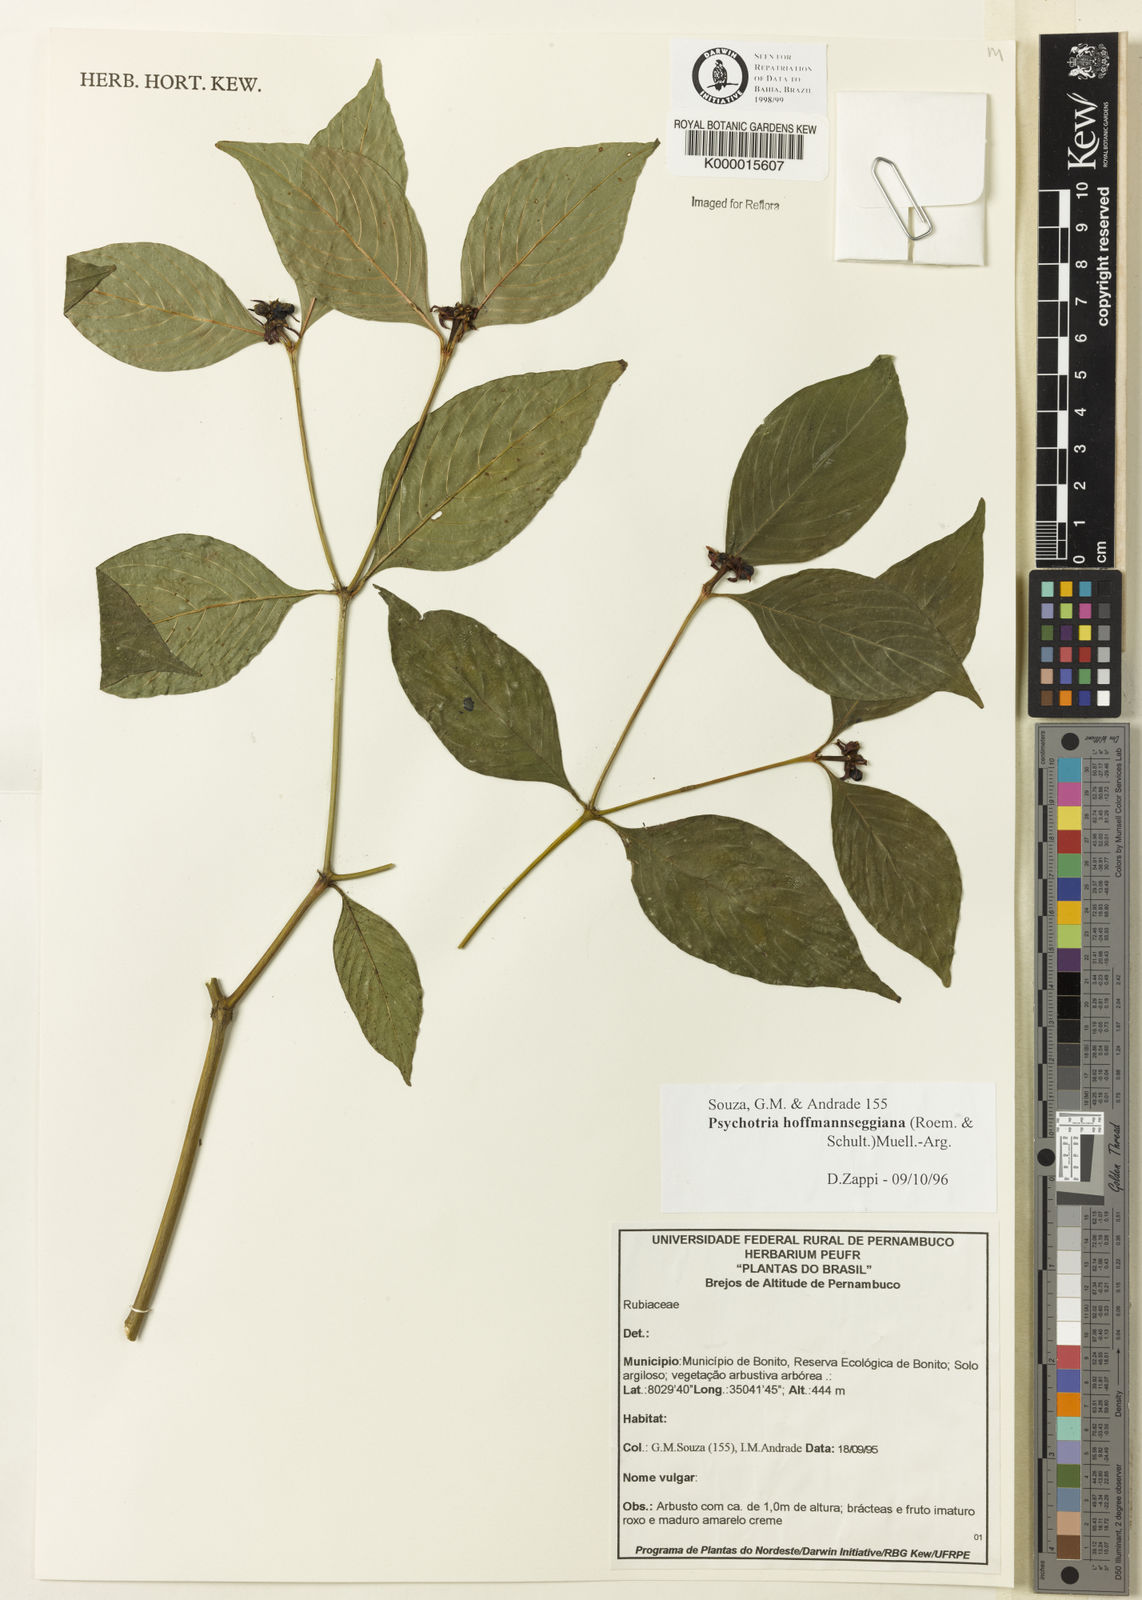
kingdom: Plantae
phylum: Tracheophyta
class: Magnoliopsida
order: Gentianales
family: Rubiaceae
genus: Psychotria
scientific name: Psychotria
